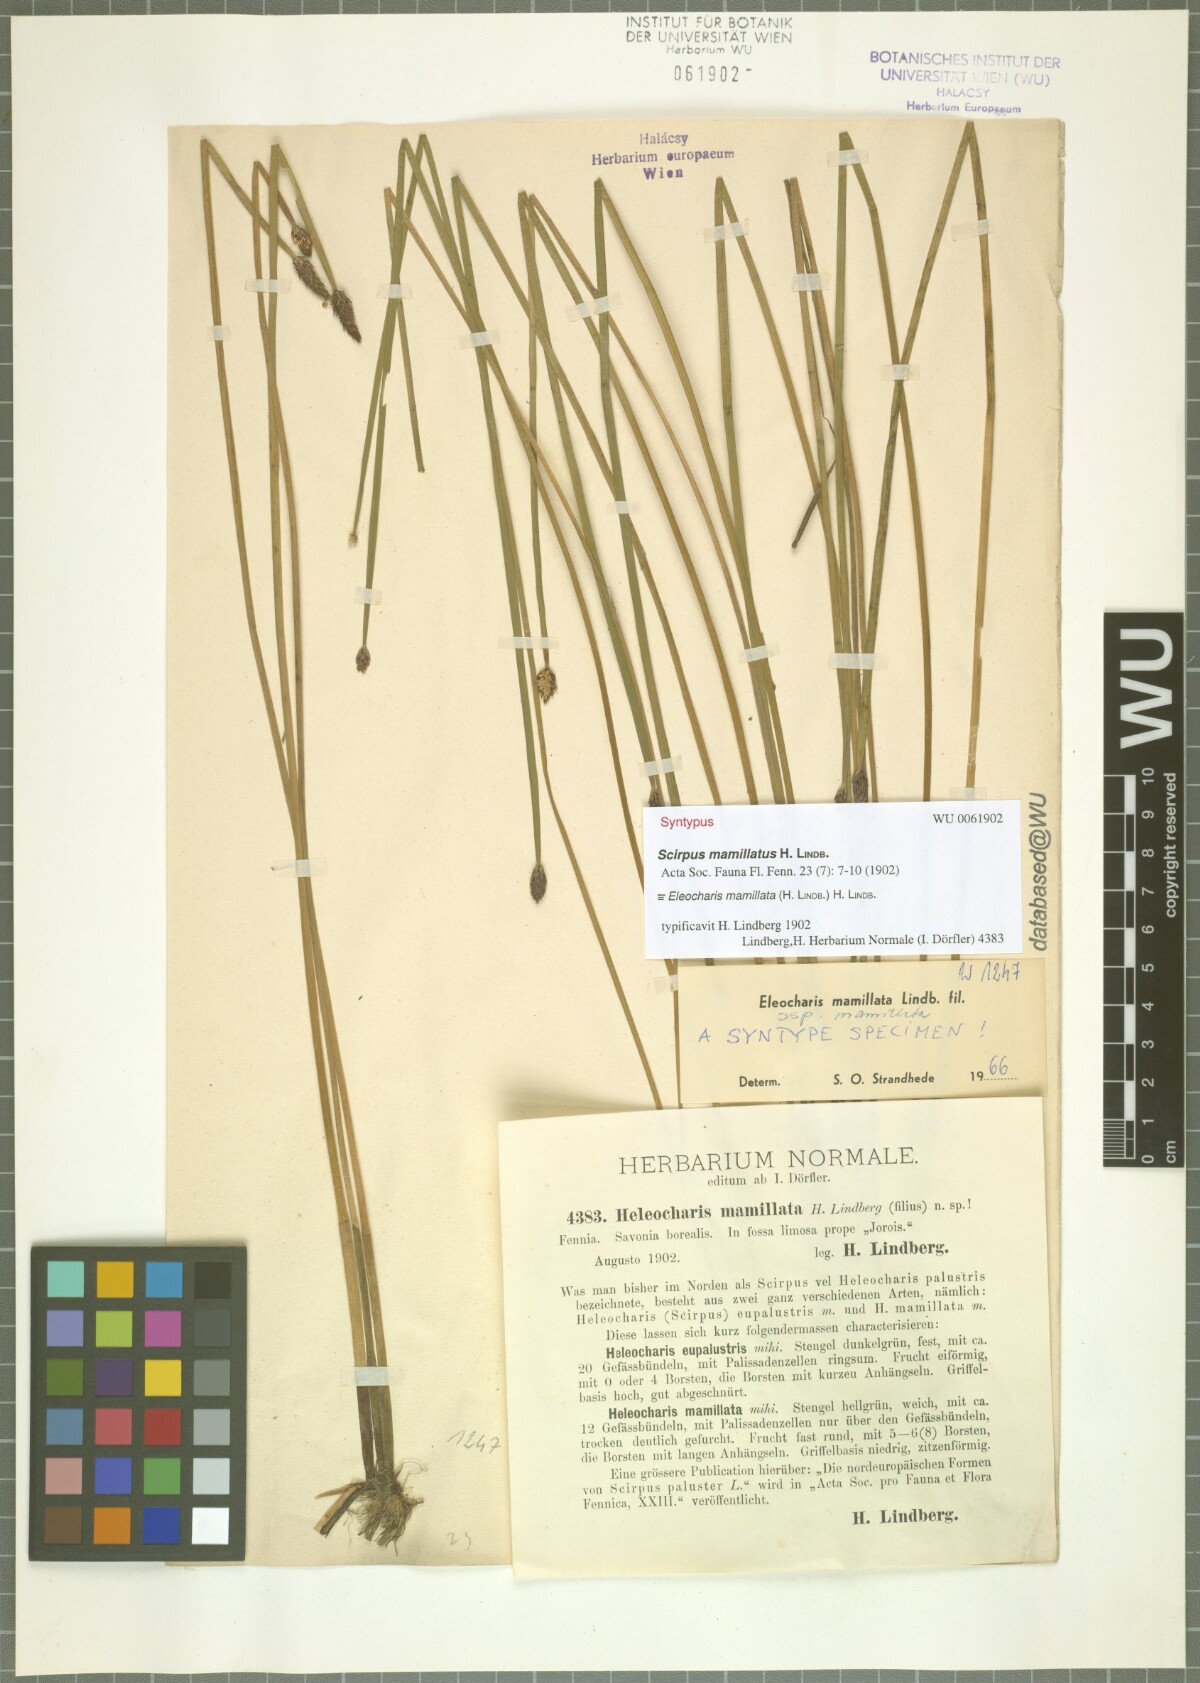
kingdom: Plantae
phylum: Tracheophyta
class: Liliopsida
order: Poales
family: Cyperaceae
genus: Eleocharis
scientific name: Eleocharis mamillata
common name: Northern spike-rush
